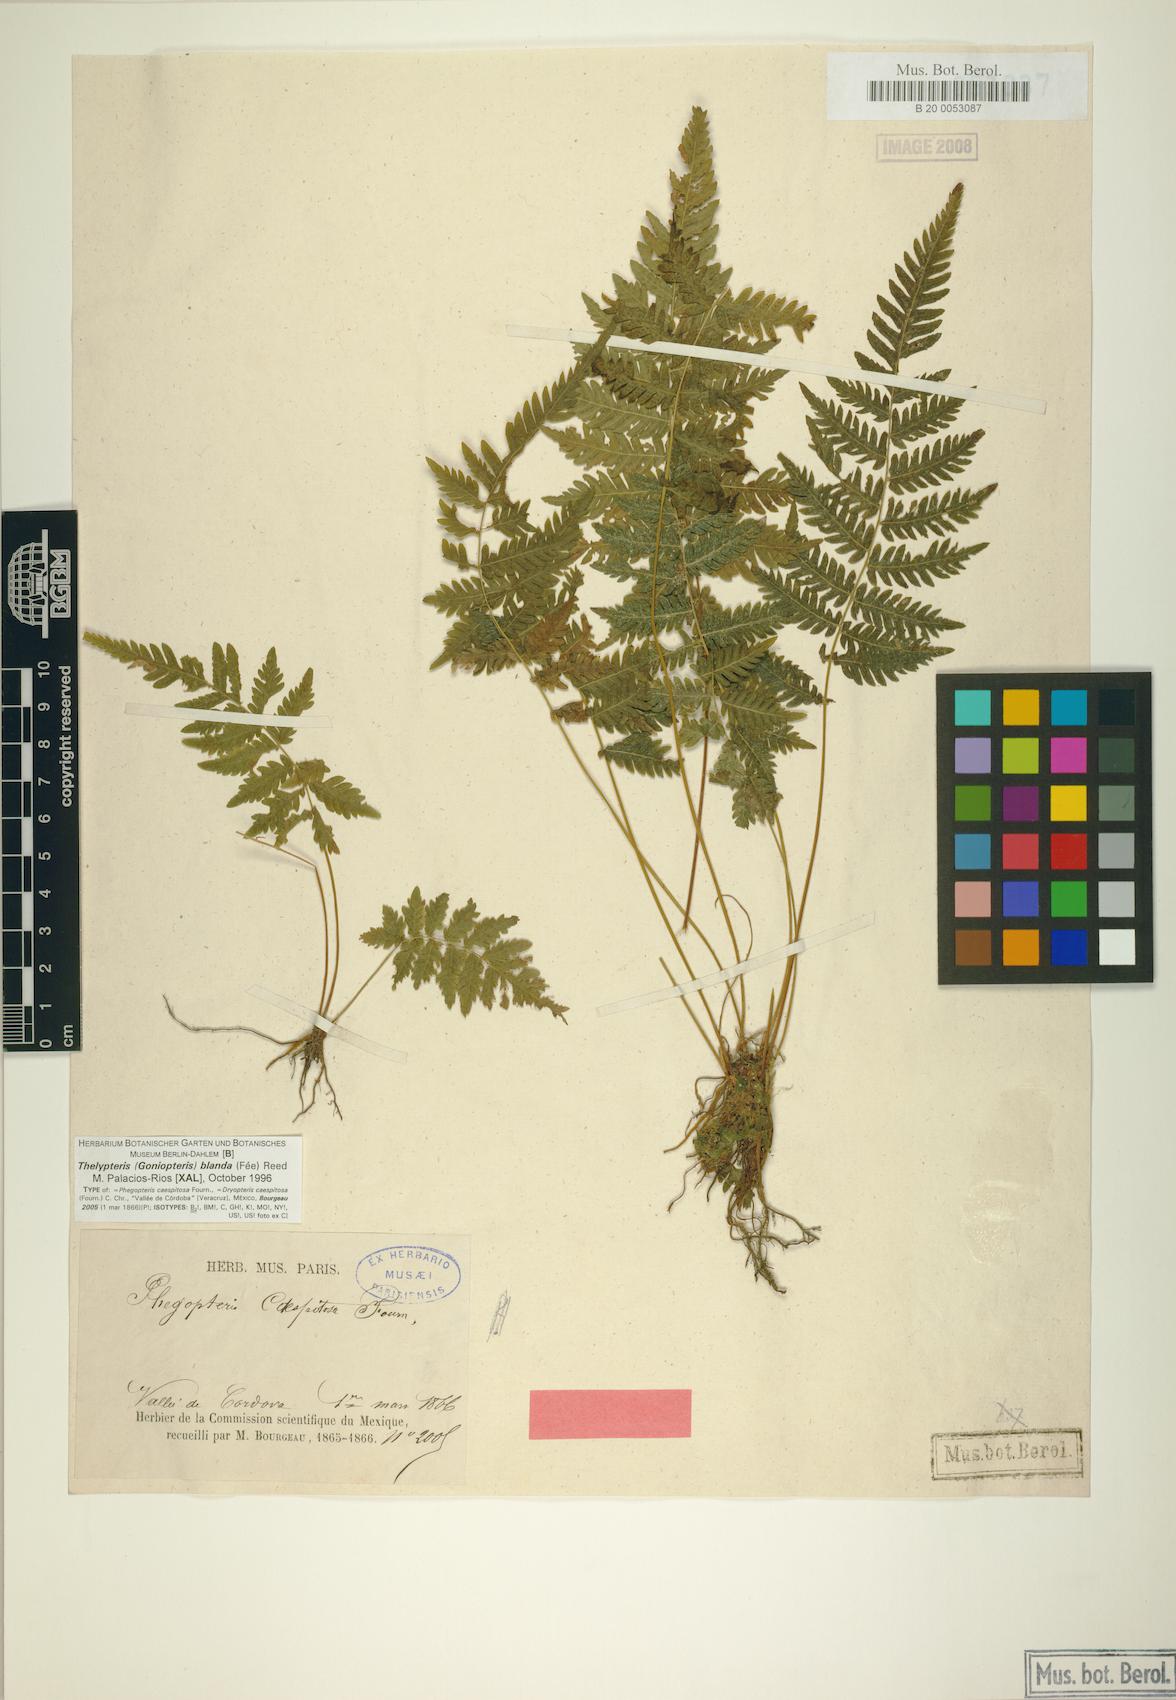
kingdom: Plantae
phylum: Tracheophyta
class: Polypodiopsida
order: Polypodiales
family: Thelypteridaceae
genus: Goniopteris
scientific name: Goniopteris blanda
